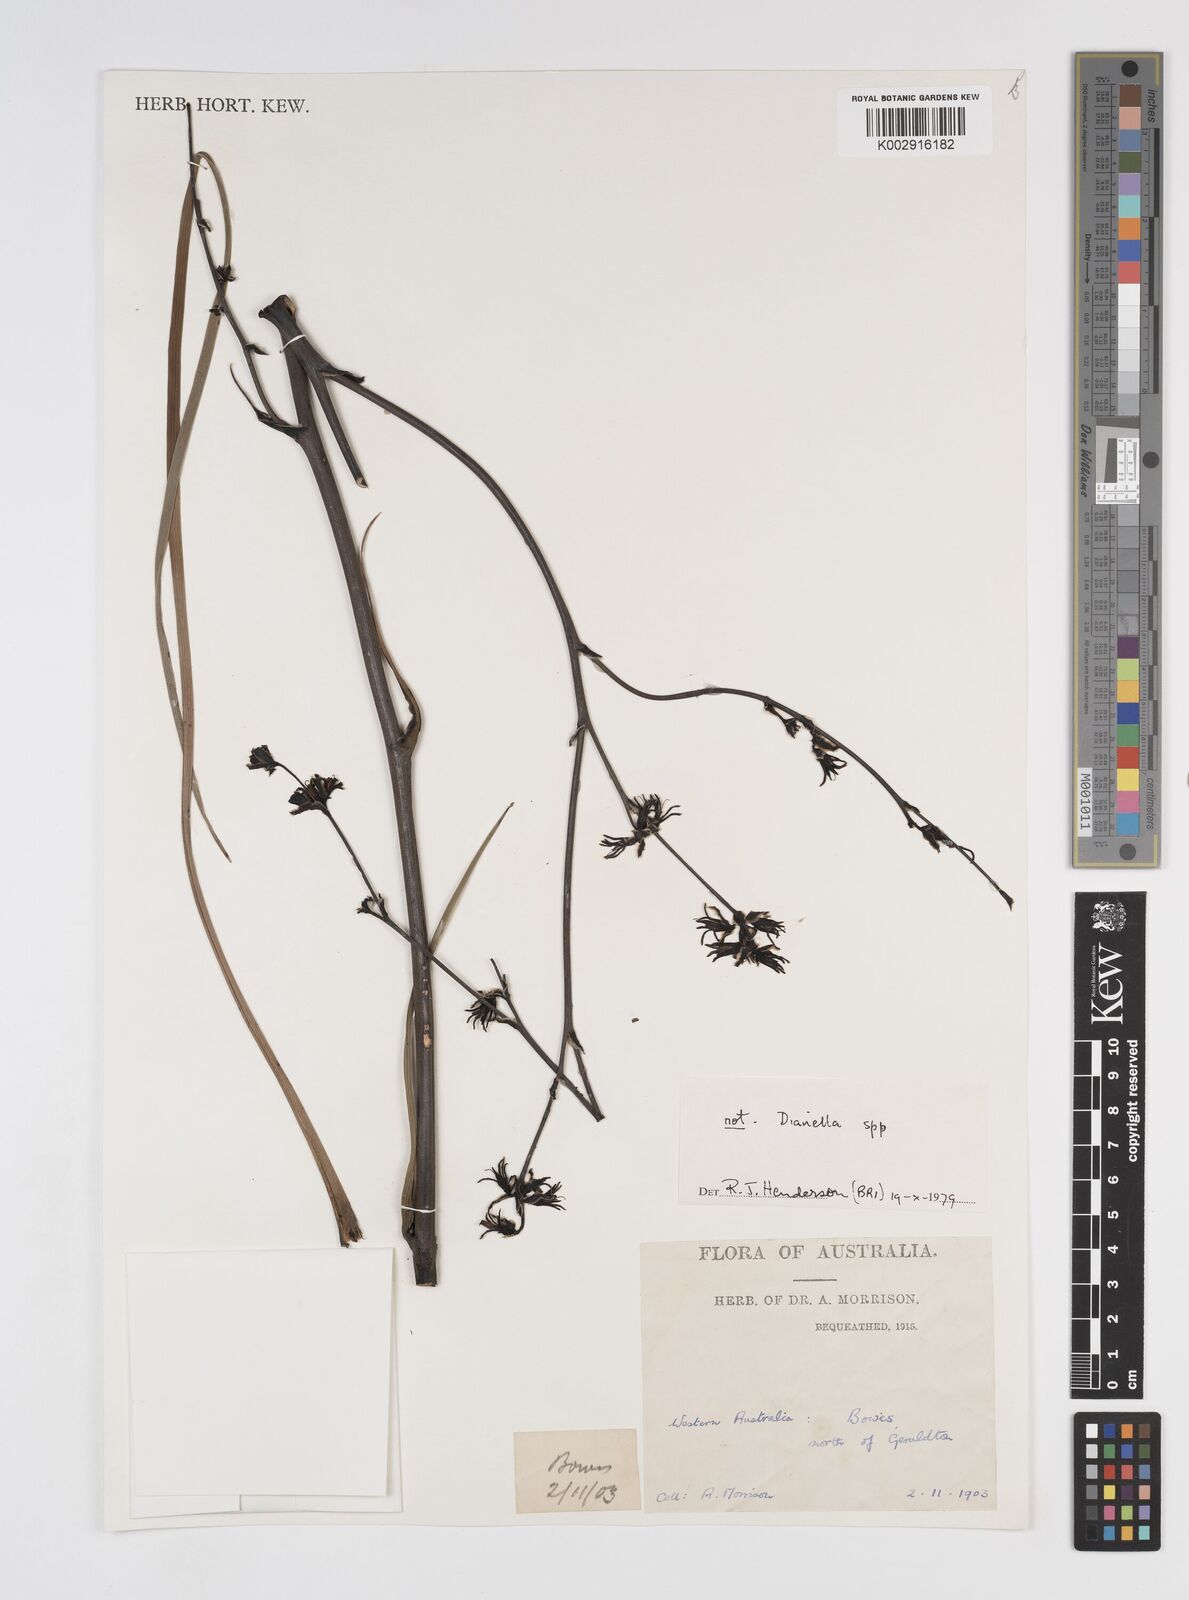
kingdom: Plantae
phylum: Tracheophyta
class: Liliopsida
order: Commelinales
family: Haemodoraceae
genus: Haemodorum
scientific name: Haemodorum
